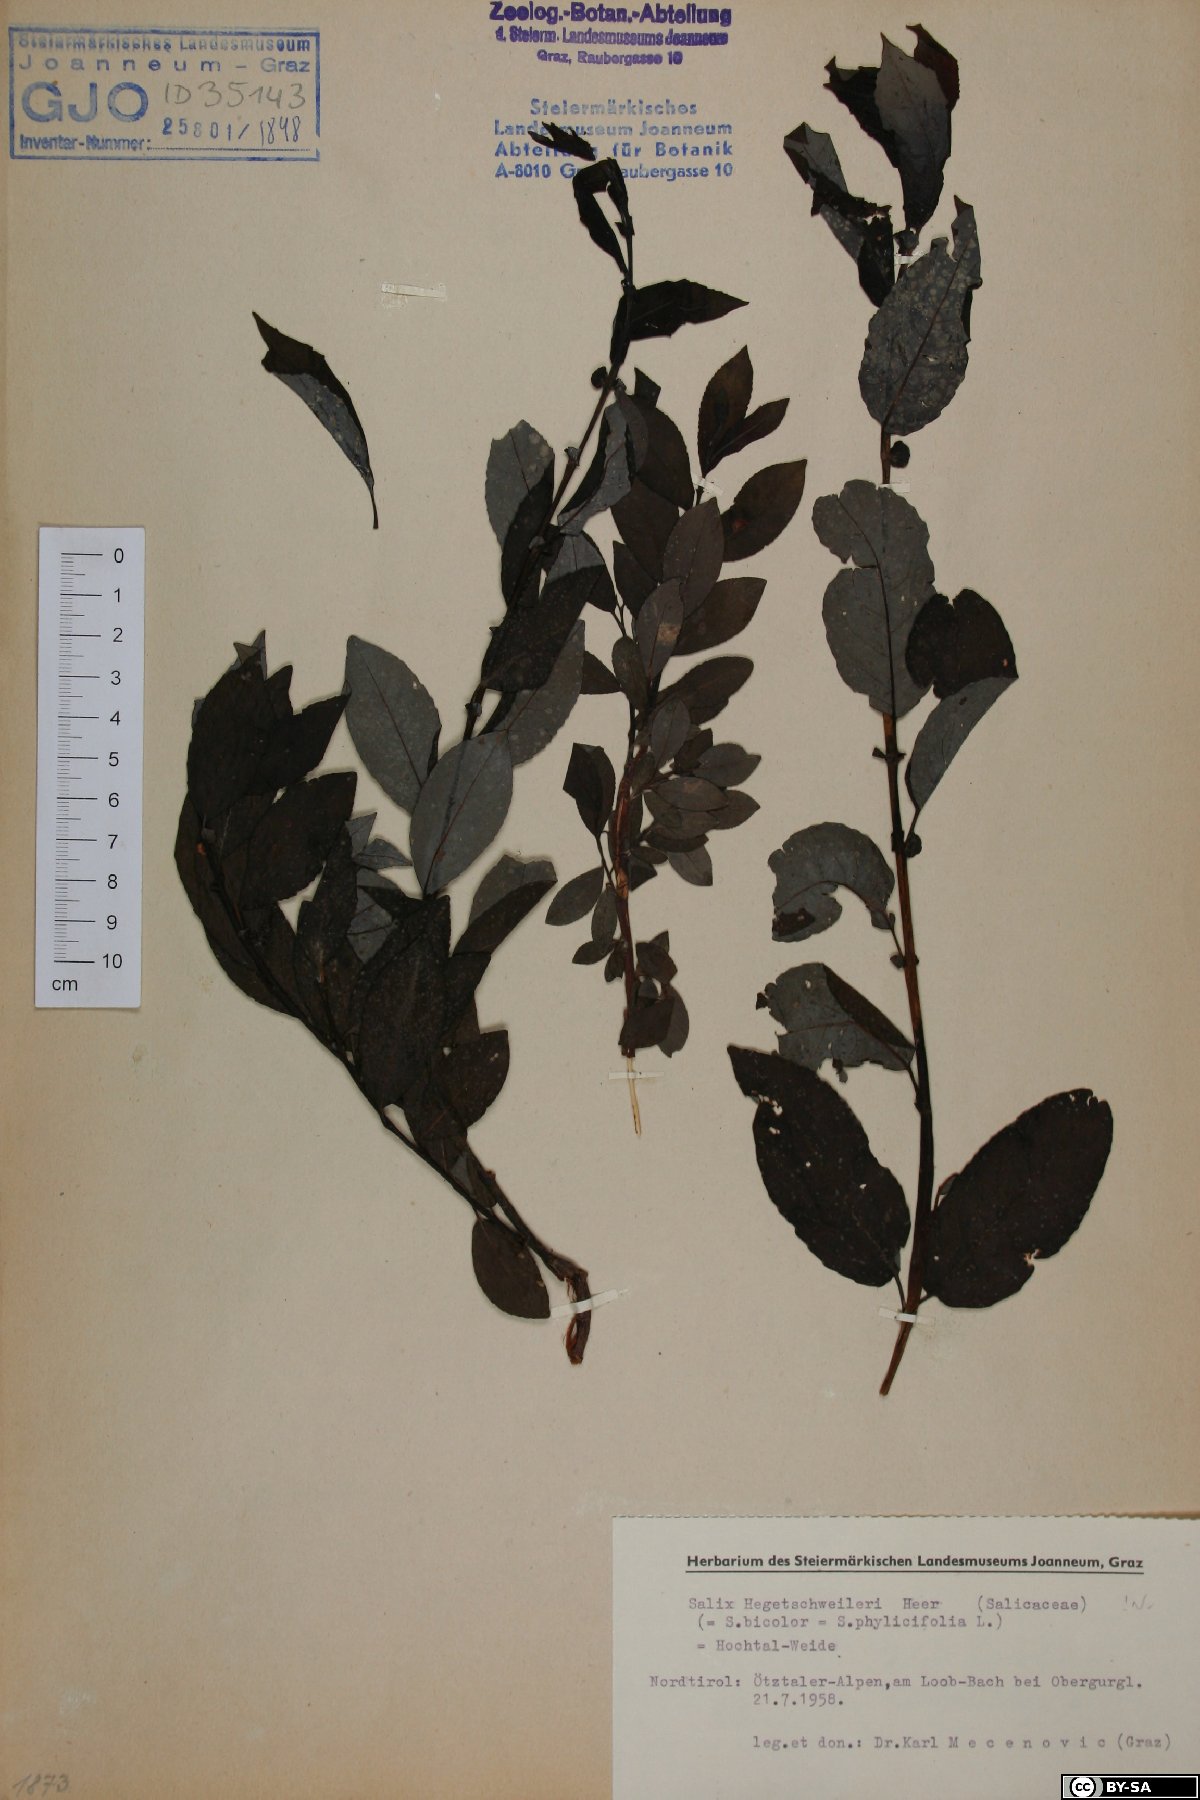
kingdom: Plantae
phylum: Tracheophyta
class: Magnoliopsida
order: Malpighiales
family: Salicaceae
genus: Salix
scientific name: Salix hegetschweileri
